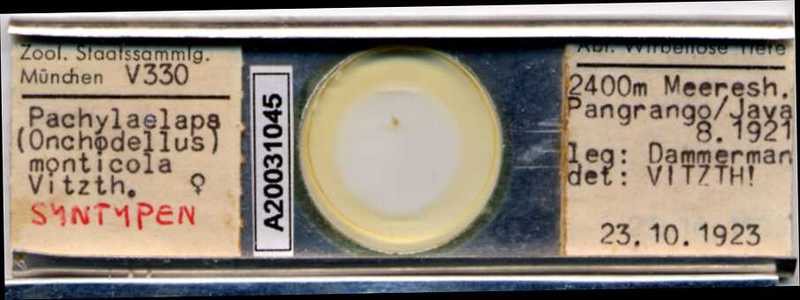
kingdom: Animalia
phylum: Arthropoda
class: Arachnida
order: Mesostigmata
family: Pachylaelapidae
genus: Onchodellus
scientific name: Onchodellus monticolus
